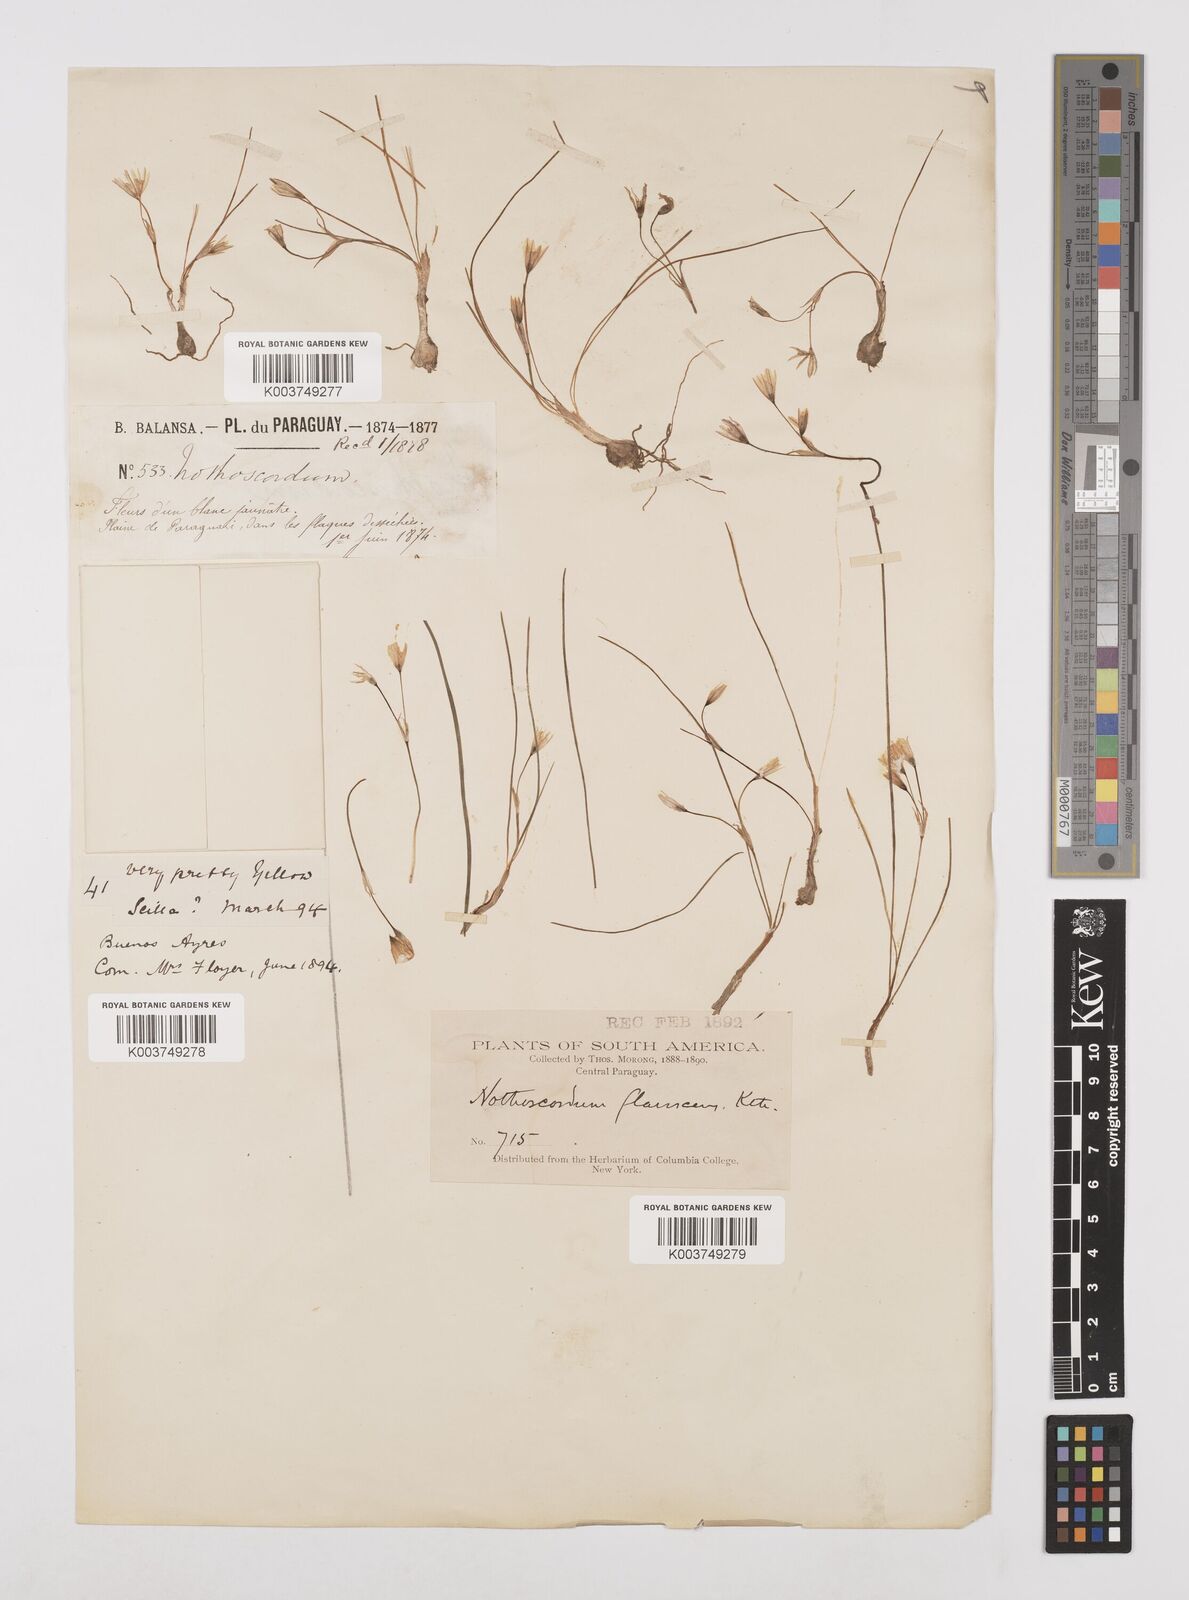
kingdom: Plantae
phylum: Tracheophyta
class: Liliopsida
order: Asparagales
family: Amaryllidaceae
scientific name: Amaryllidaceae
